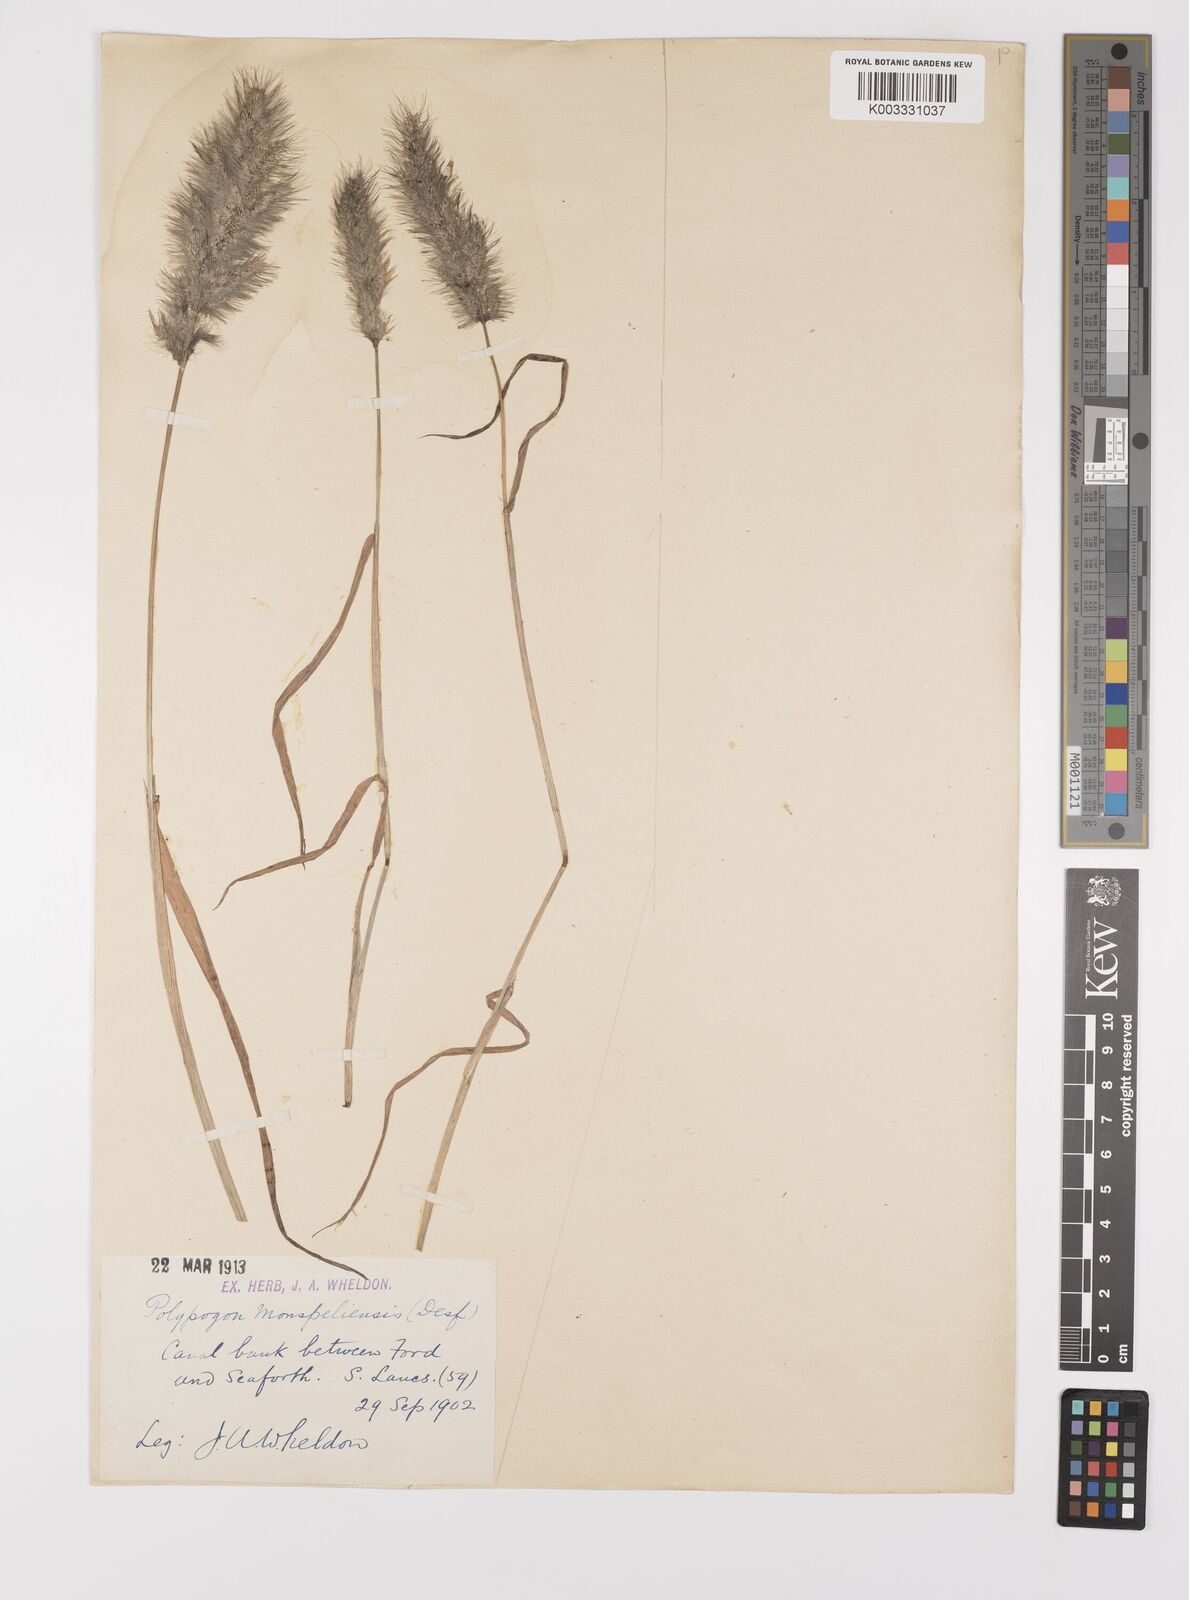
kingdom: Plantae
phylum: Tracheophyta
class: Liliopsida
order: Poales
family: Poaceae
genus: Polypogon
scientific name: Polypogon monspeliensis
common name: Annual rabbitsfoot grass
